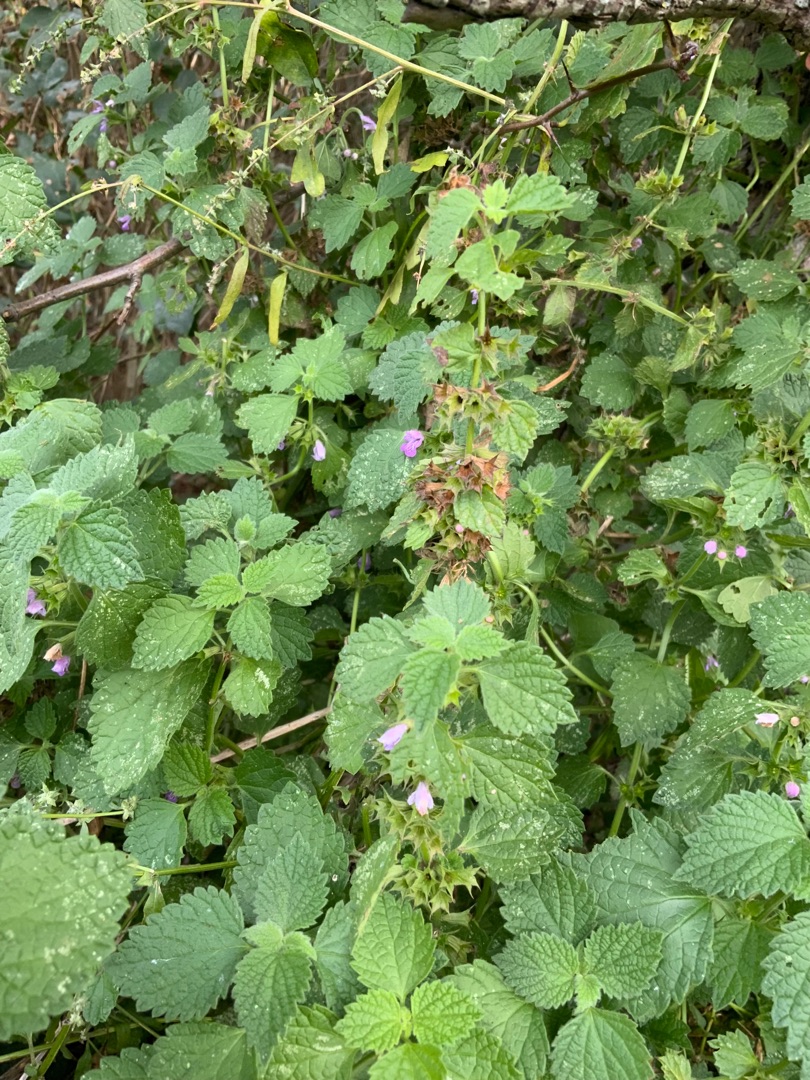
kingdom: Plantae
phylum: Tracheophyta
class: Magnoliopsida
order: Lamiales
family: Lamiaceae
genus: Ballota
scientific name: Ballota nigra
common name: Tandbæger
